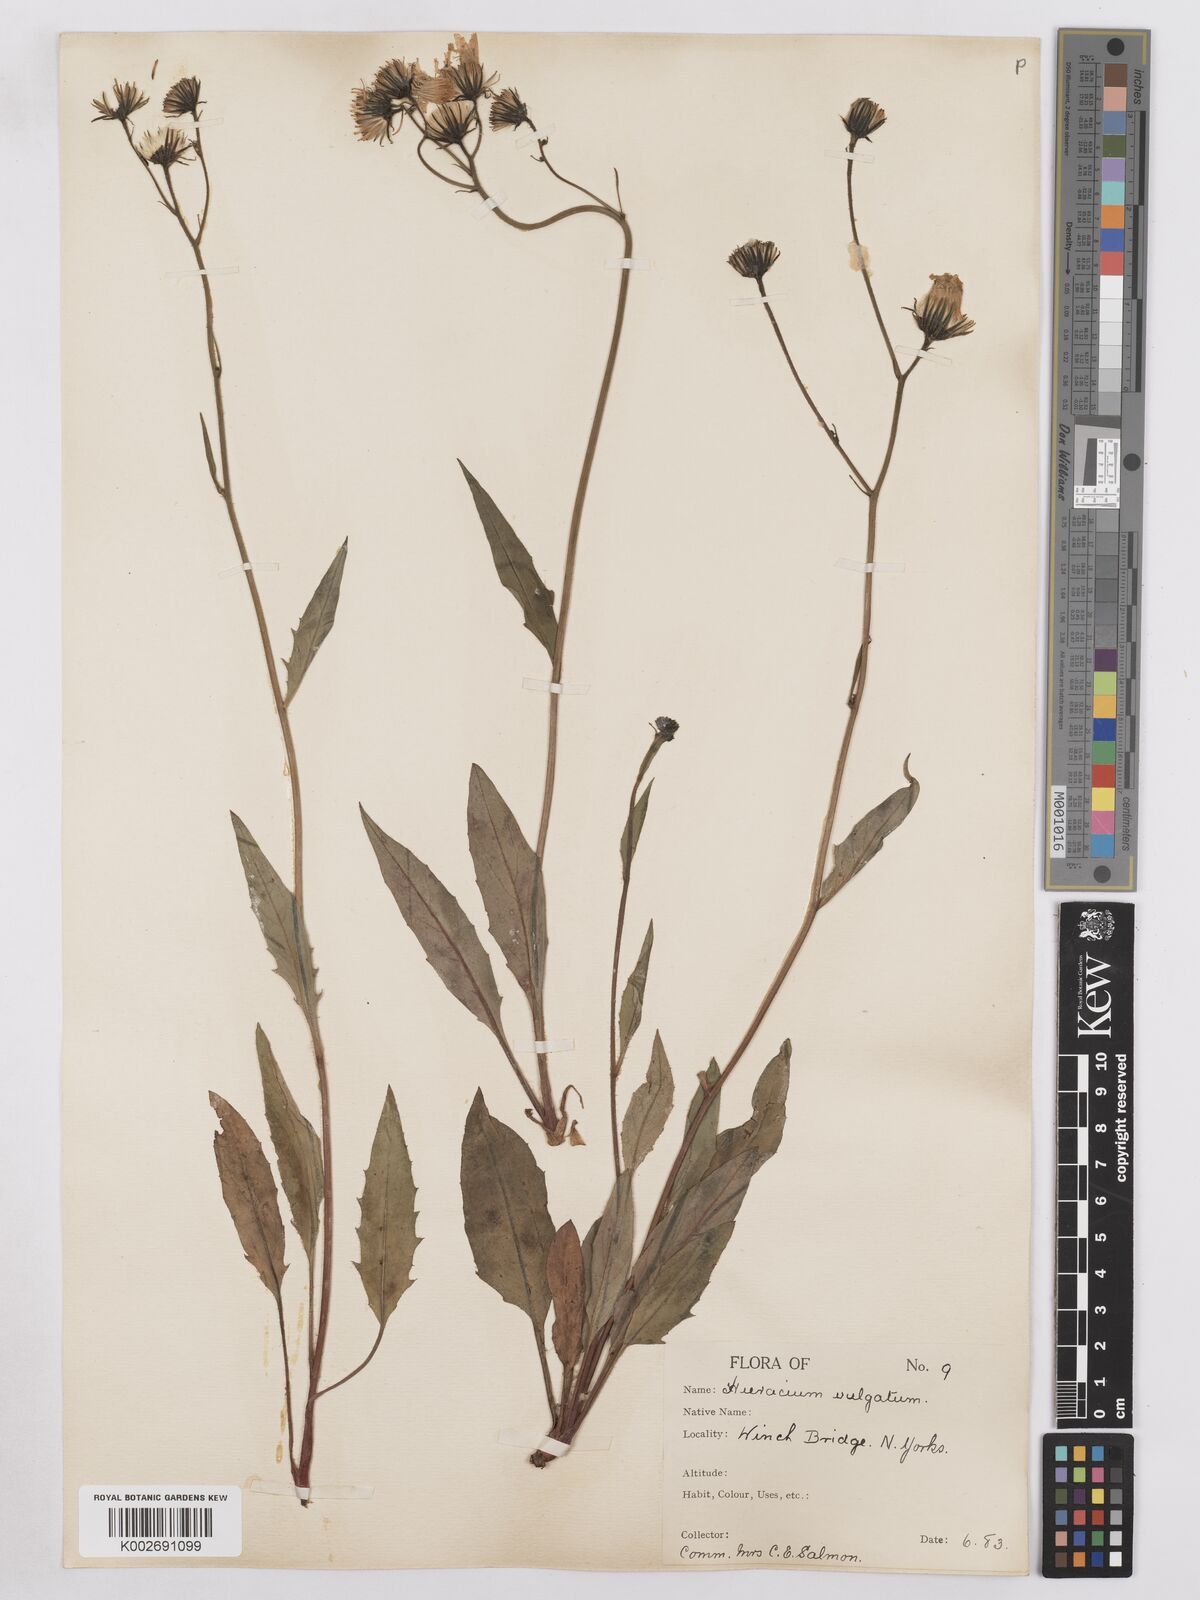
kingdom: Plantae
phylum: Tracheophyta
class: Magnoliopsida
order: Asterales
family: Asteraceae
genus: Hieracium
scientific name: Hieracium lachenalii
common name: Common hawkweed
